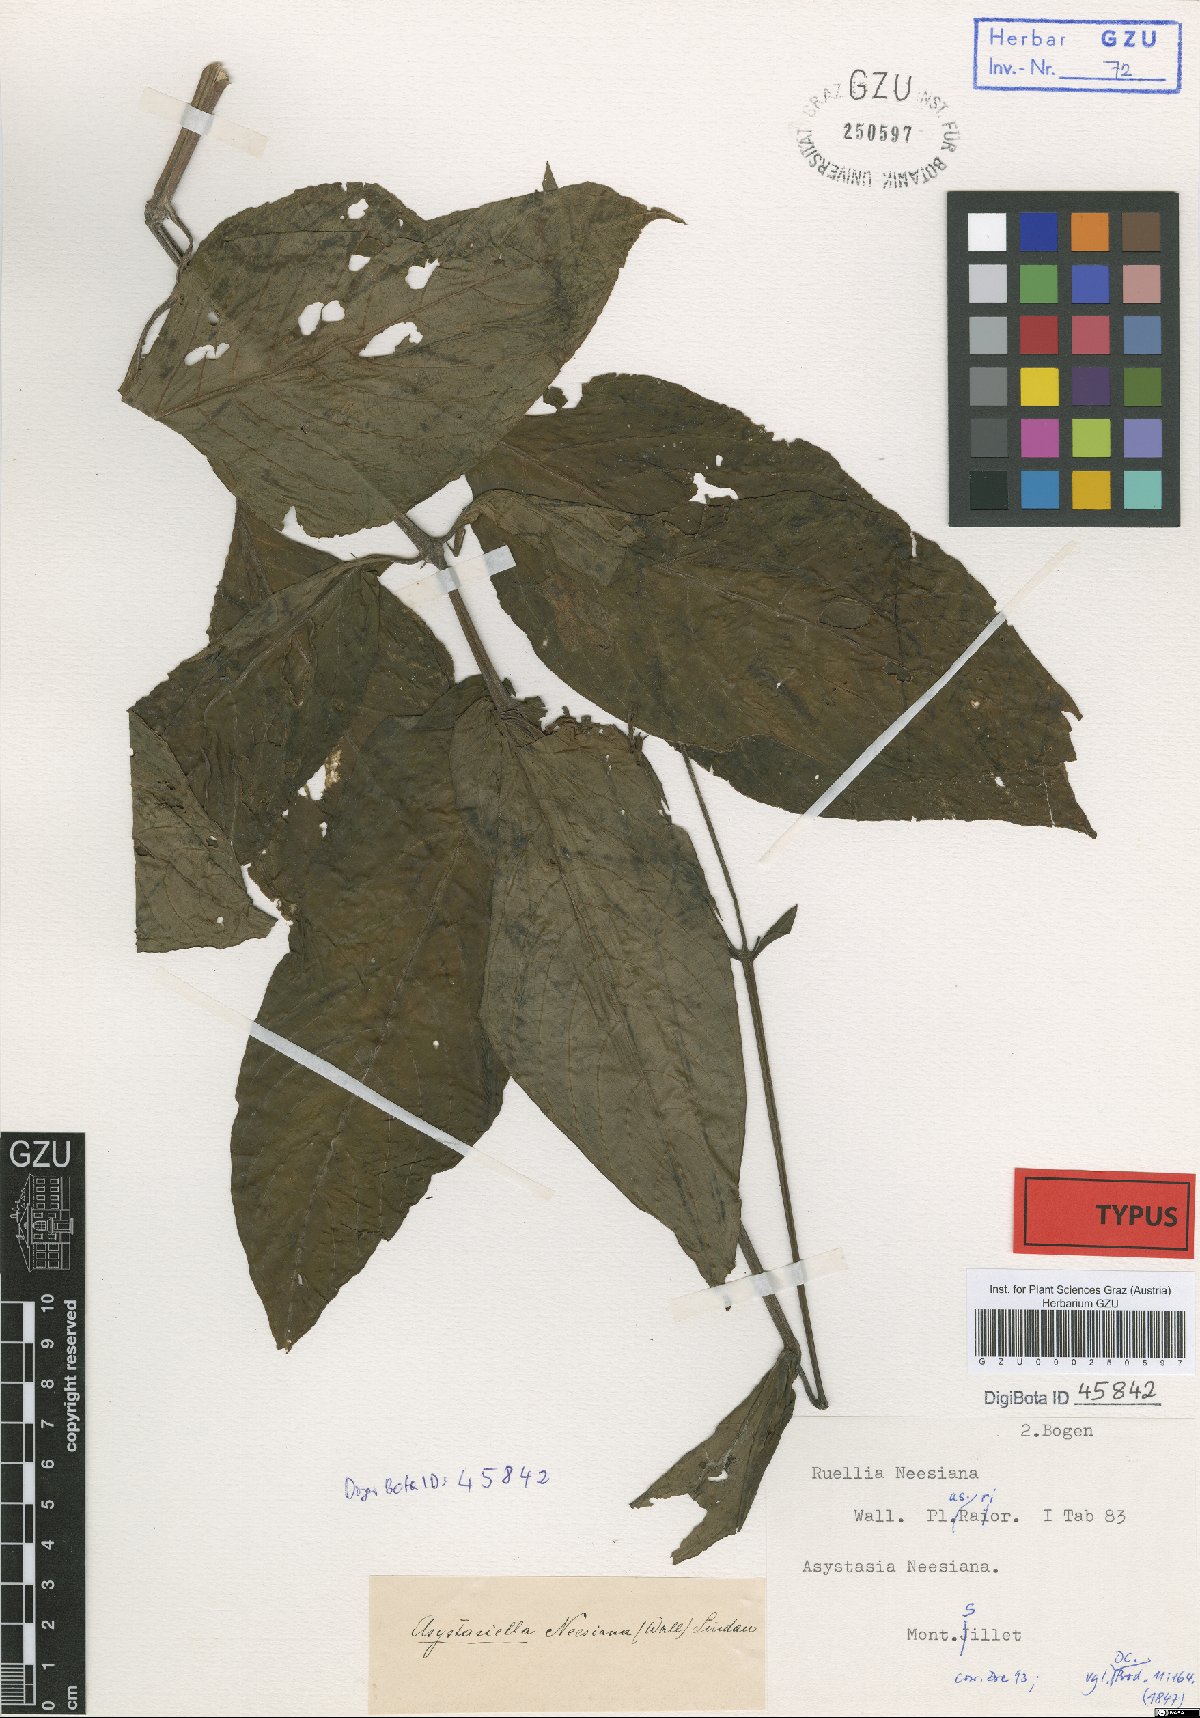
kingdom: Plantae
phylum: Tracheophyta
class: Magnoliopsida
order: Lamiales
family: Acanthaceae
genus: Mackaya
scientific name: Mackaya neesiana
